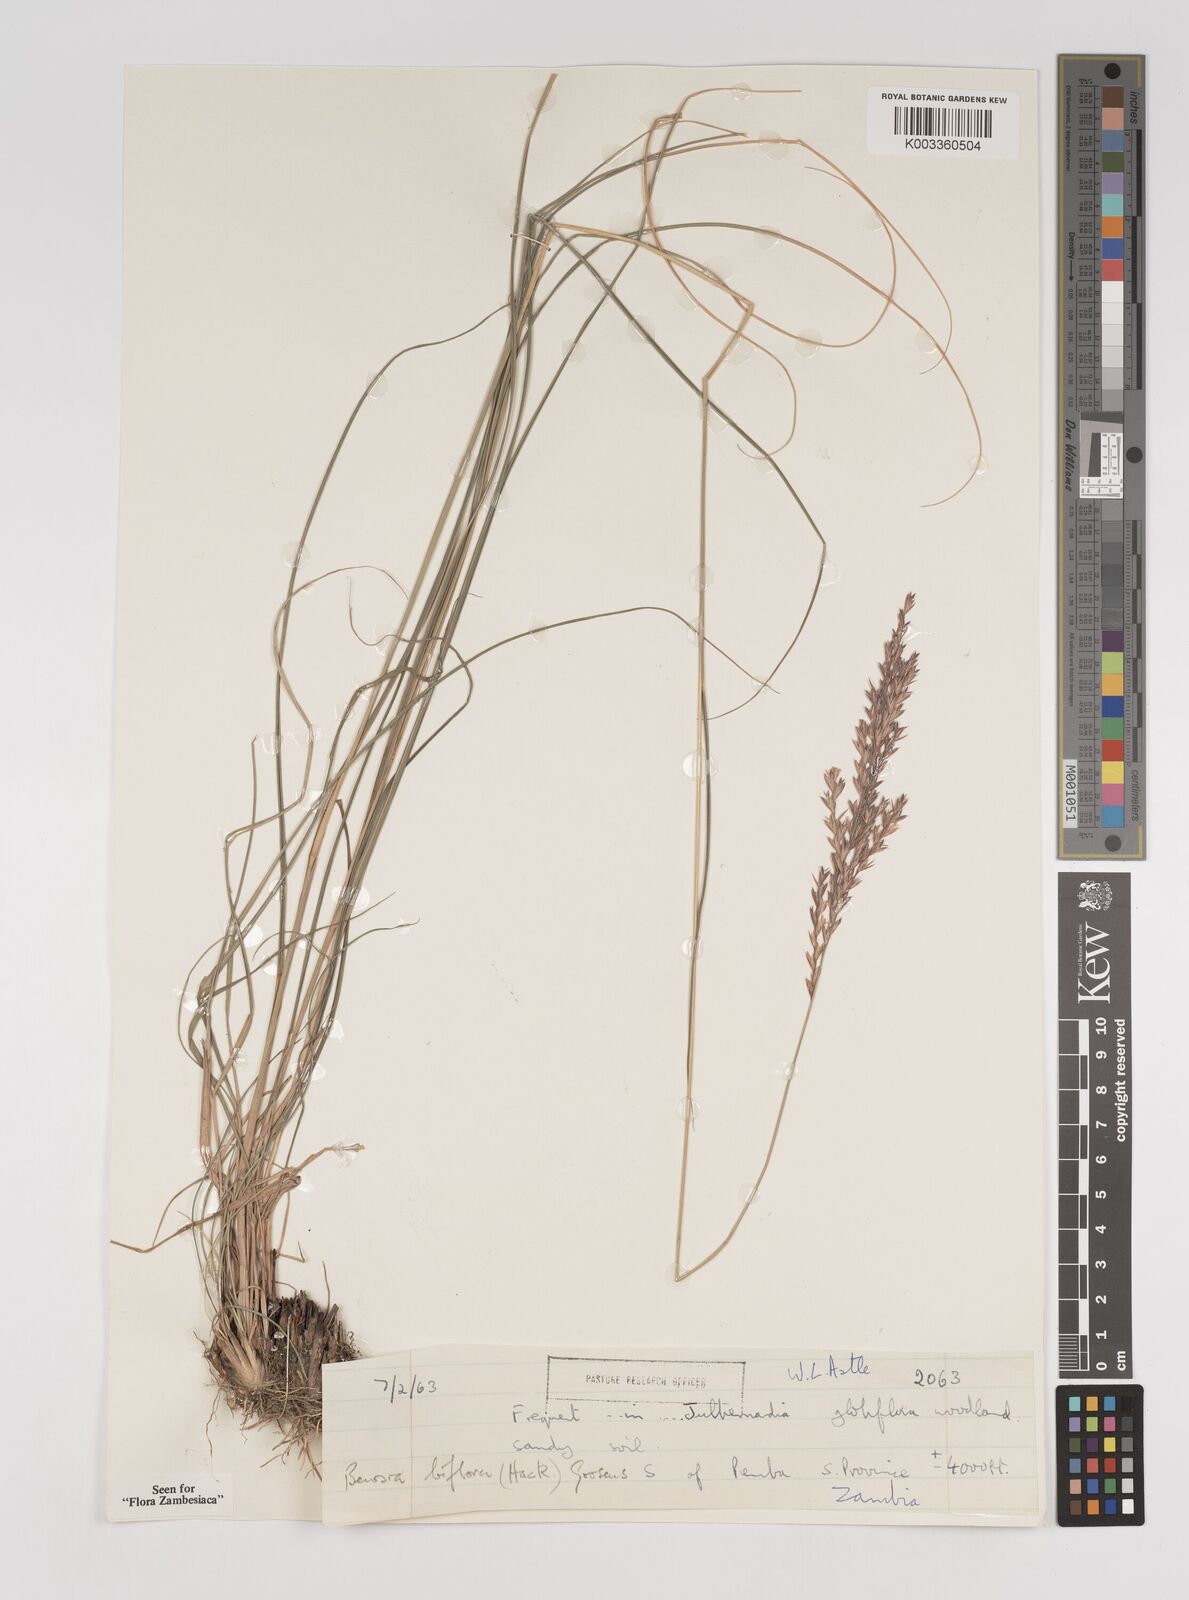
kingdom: Plantae
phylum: Tracheophyta
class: Liliopsida
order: Poales
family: Poaceae
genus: Bewsia
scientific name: Bewsia biflora
